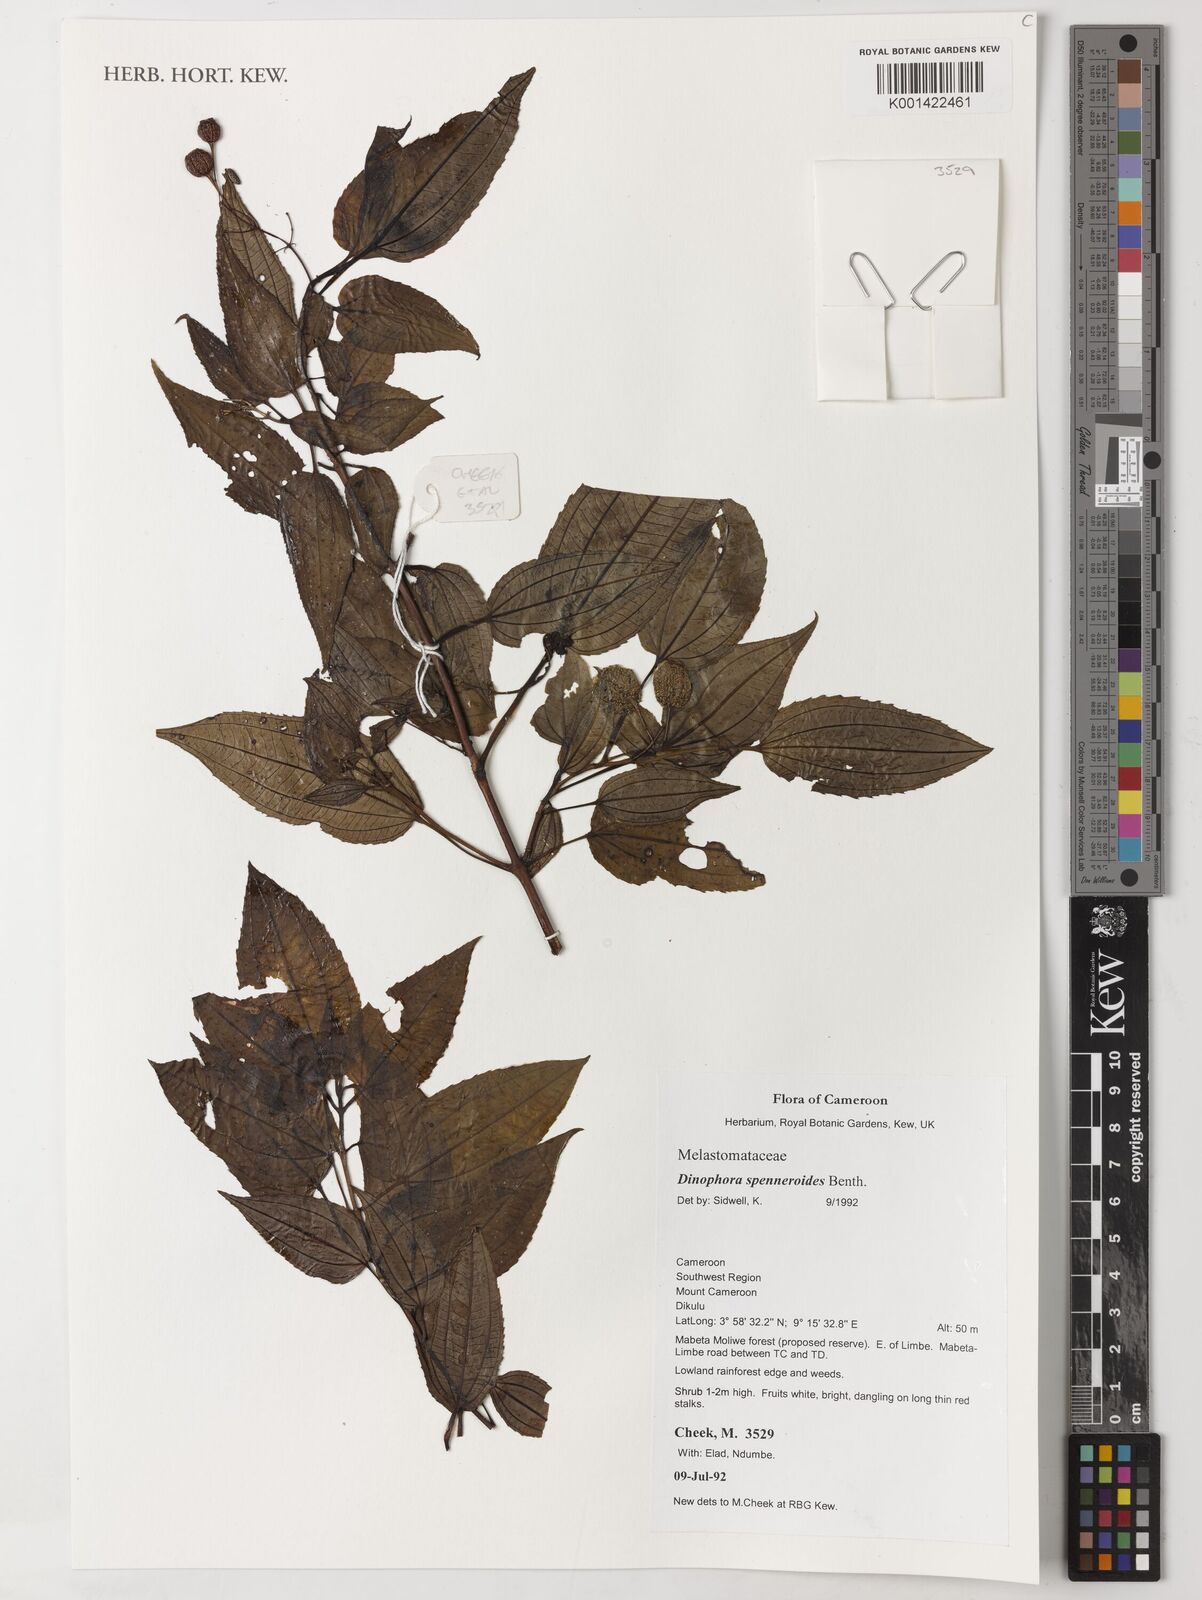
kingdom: Plantae
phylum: Tracheophyta
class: Magnoliopsida
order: Myrtales
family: Melastomataceae
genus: Dinophora
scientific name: Dinophora spenneroides
